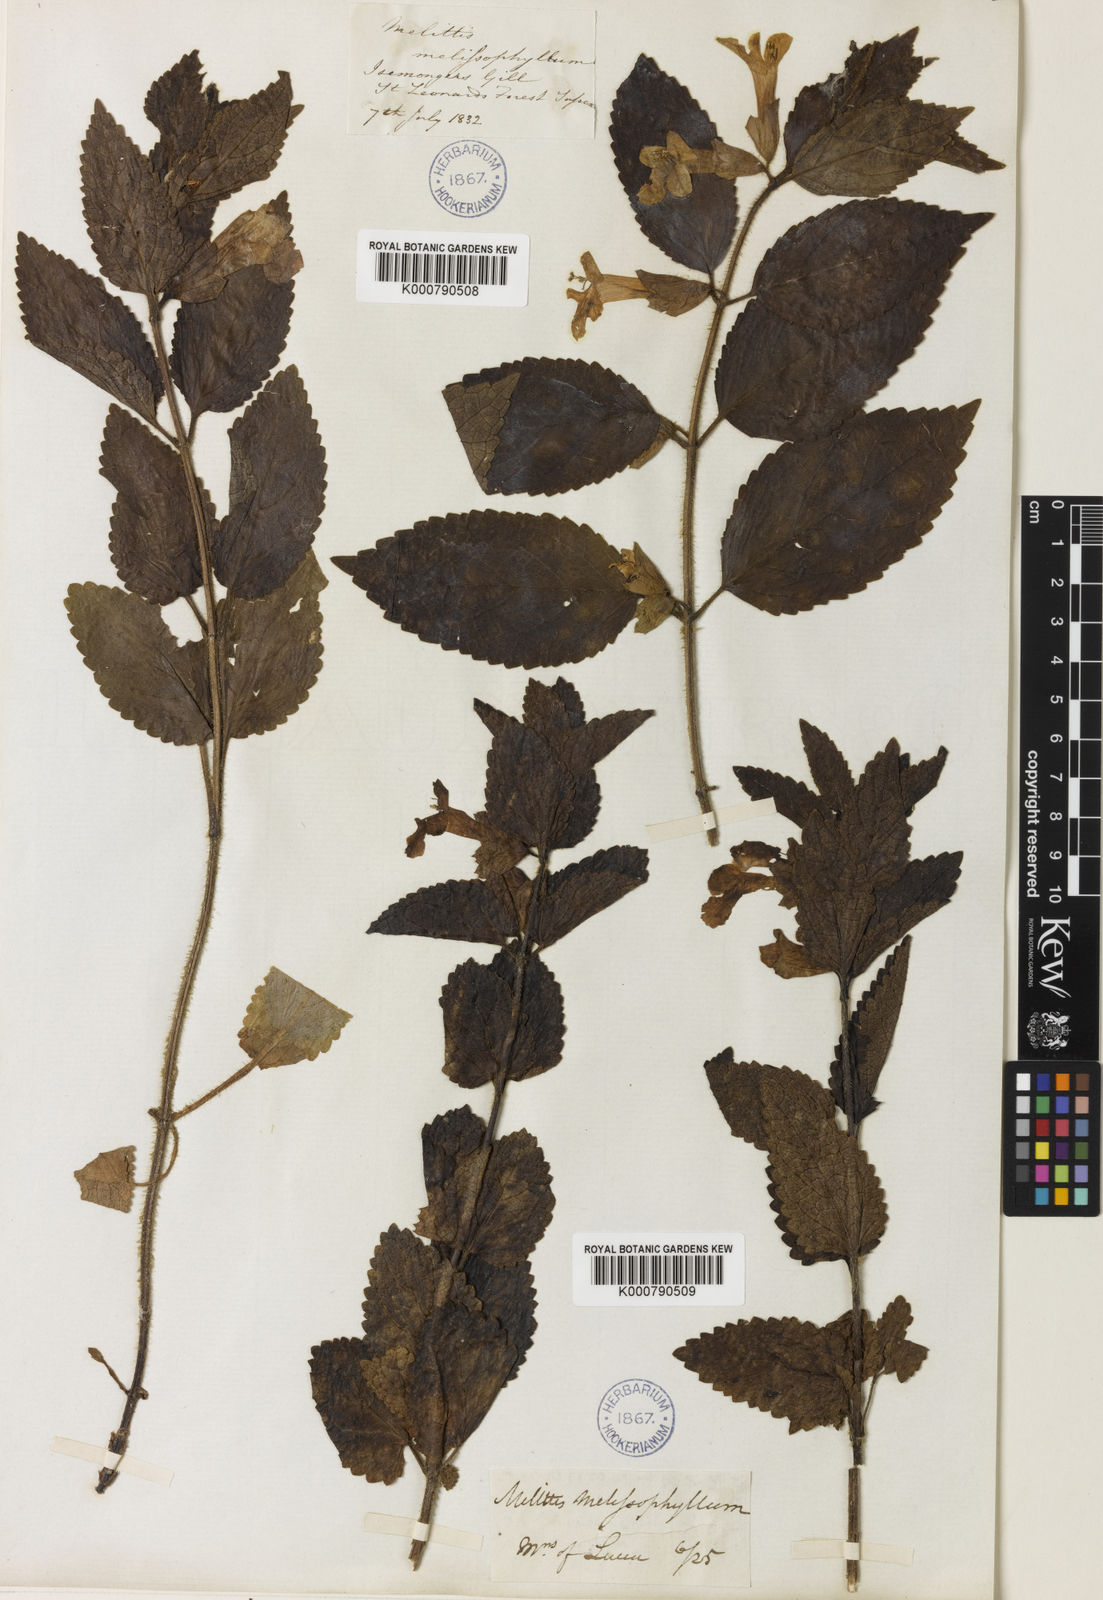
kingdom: Plantae
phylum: Tracheophyta
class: Magnoliopsida
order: Lamiales
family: Lamiaceae
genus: Melittis
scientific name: Melittis melissophyllum
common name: Bastard balm
